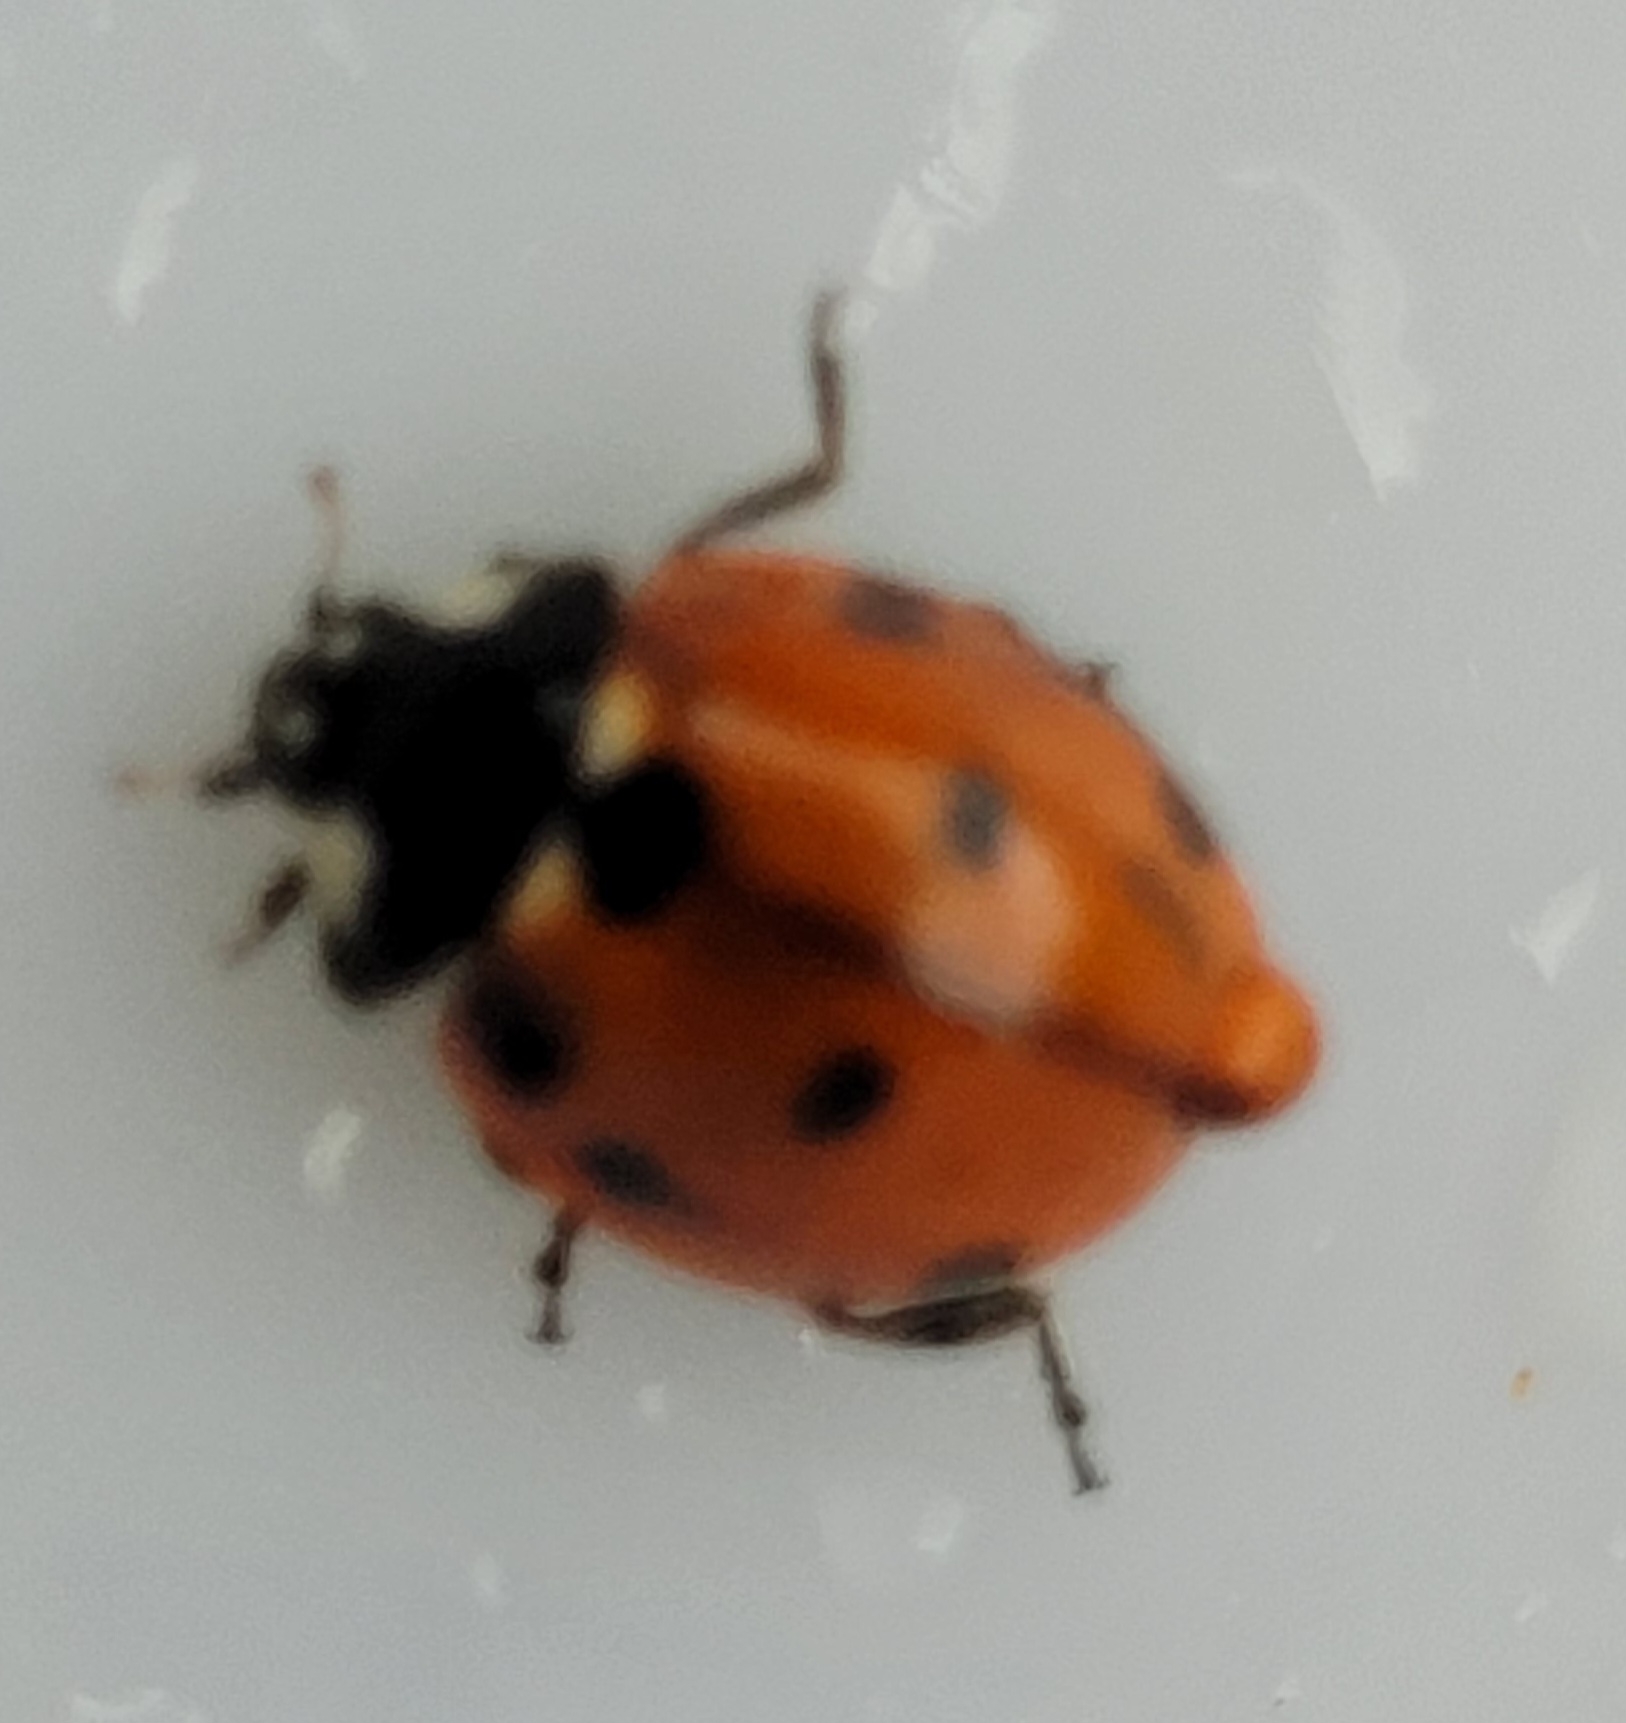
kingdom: Animalia
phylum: Arthropoda
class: Insecta
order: Coleoptera
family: Coccinellidae
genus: Coccinella
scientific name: Coccinella septempunctata
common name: Syvplettet mariehøne
